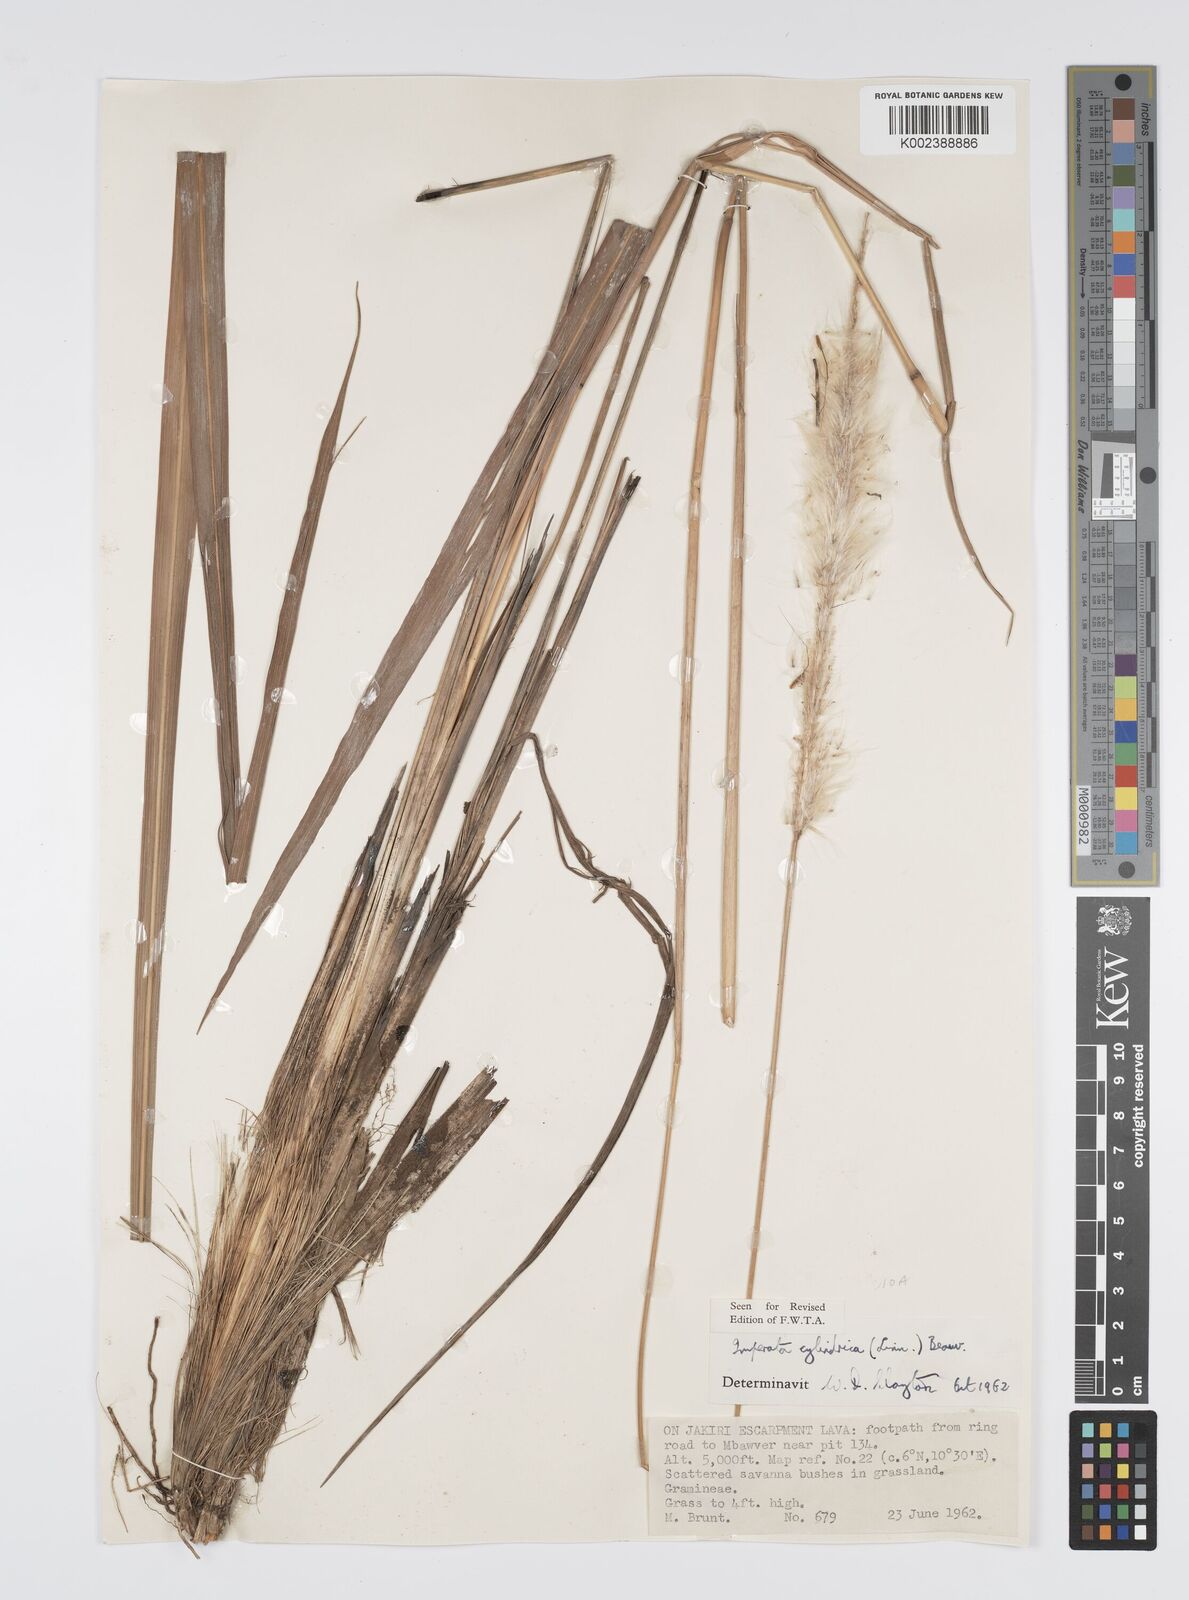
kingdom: Plantae
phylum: Tracheophyta
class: Liliopsida
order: Poales
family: Poaceae
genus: Imperata
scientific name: Imperata cylindrica
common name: Cogongrass
